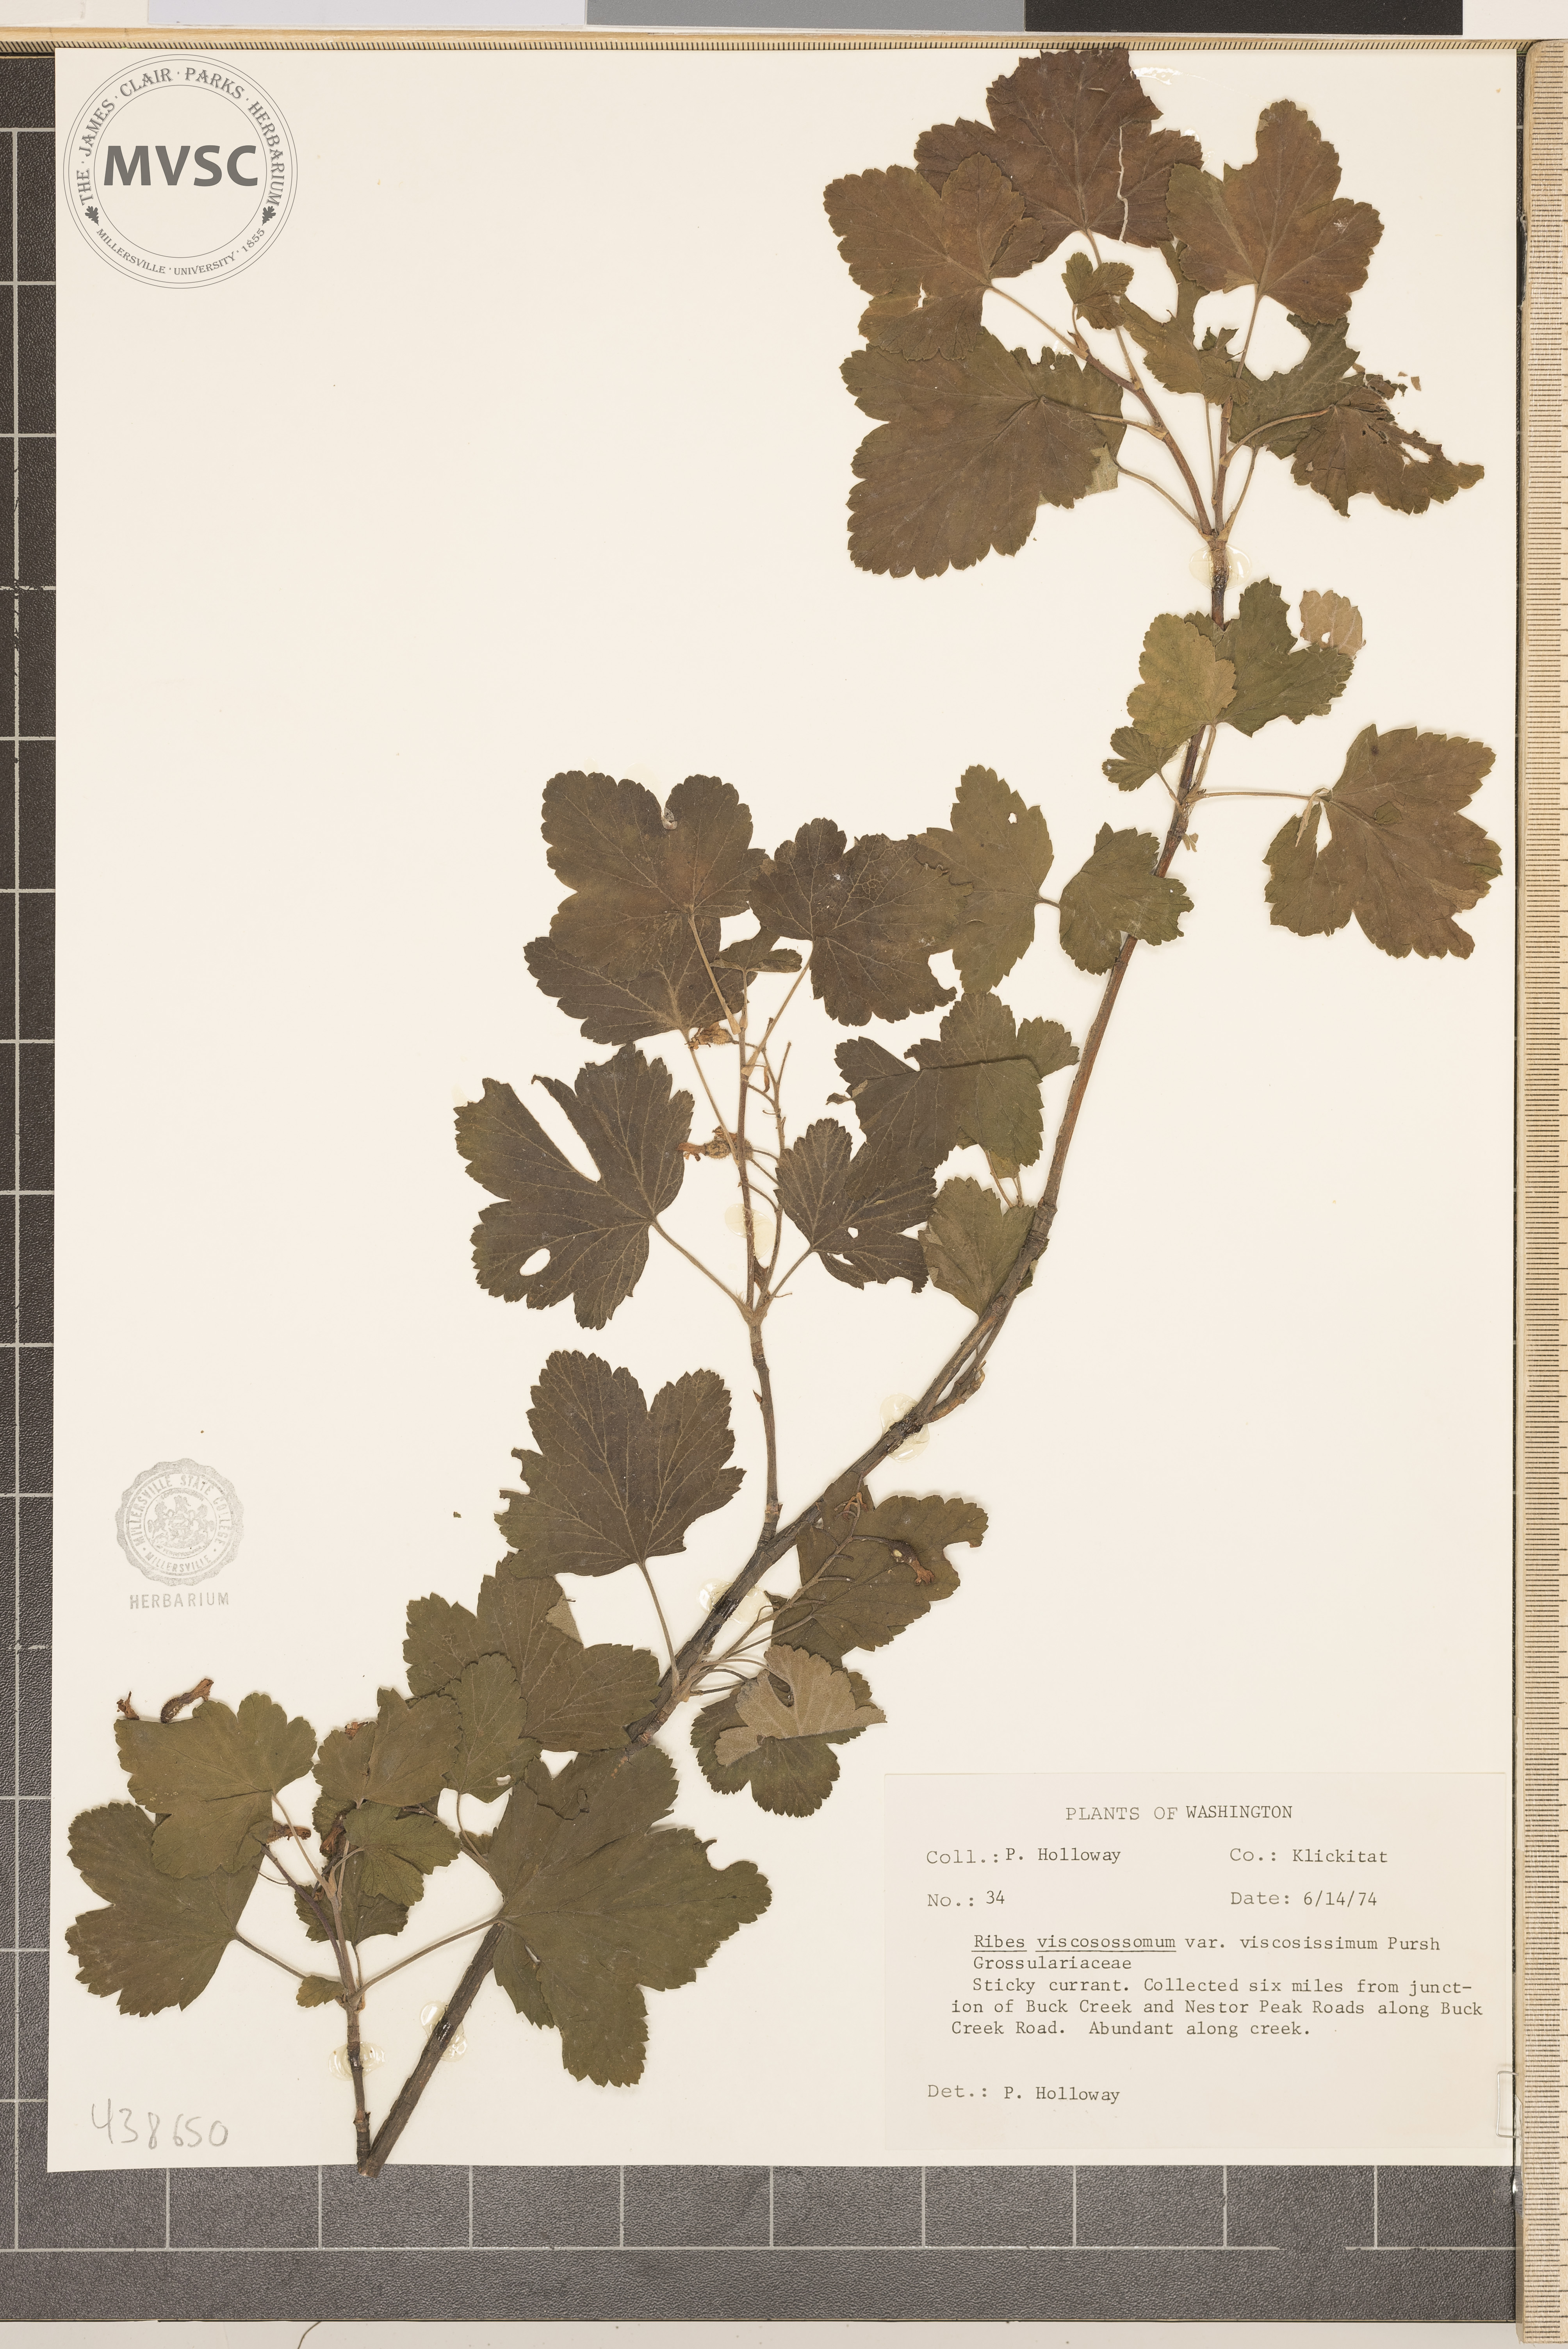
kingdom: Plantae
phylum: Tracheophyta
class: Magnoliopsida
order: Saxifragales
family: Grossulariaceae
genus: Ribes
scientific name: Ribes viscosum
